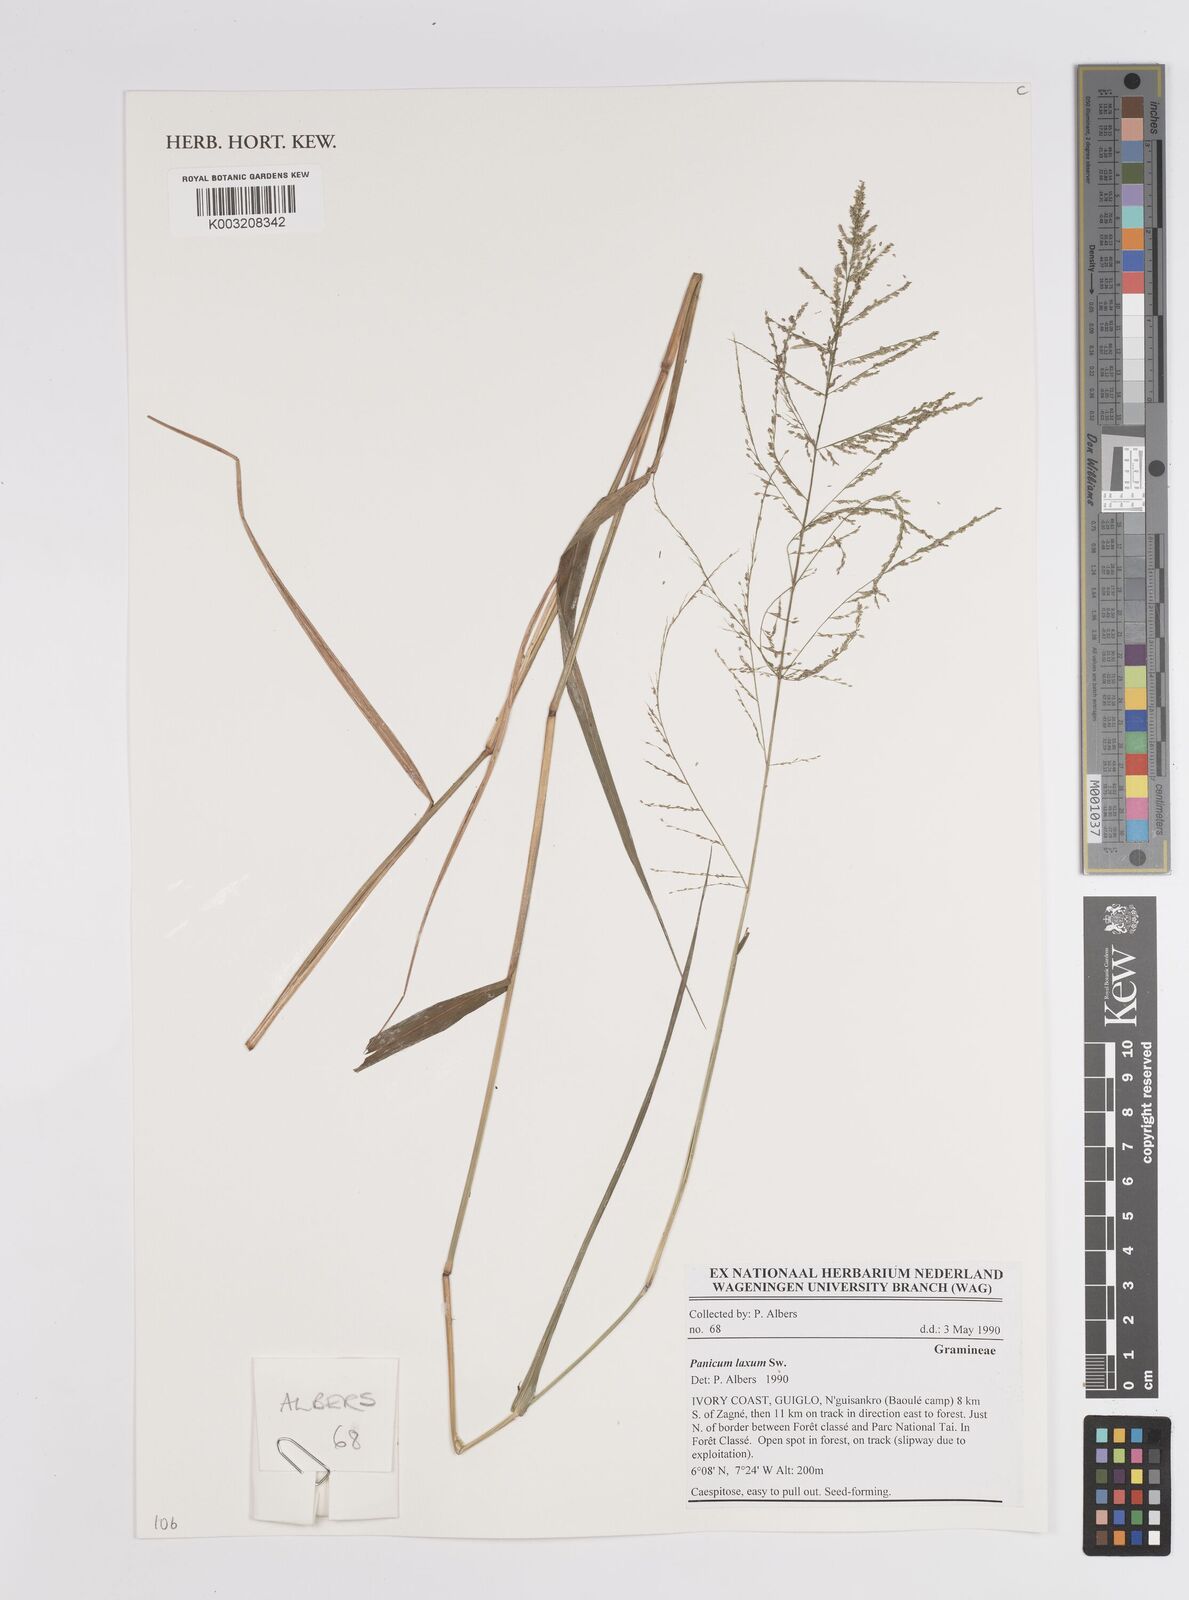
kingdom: Plantae
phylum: Tracheophyta
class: Liliopsida
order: Poales
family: Poaceae
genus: Steinchisma
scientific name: Steinchisma laxum
